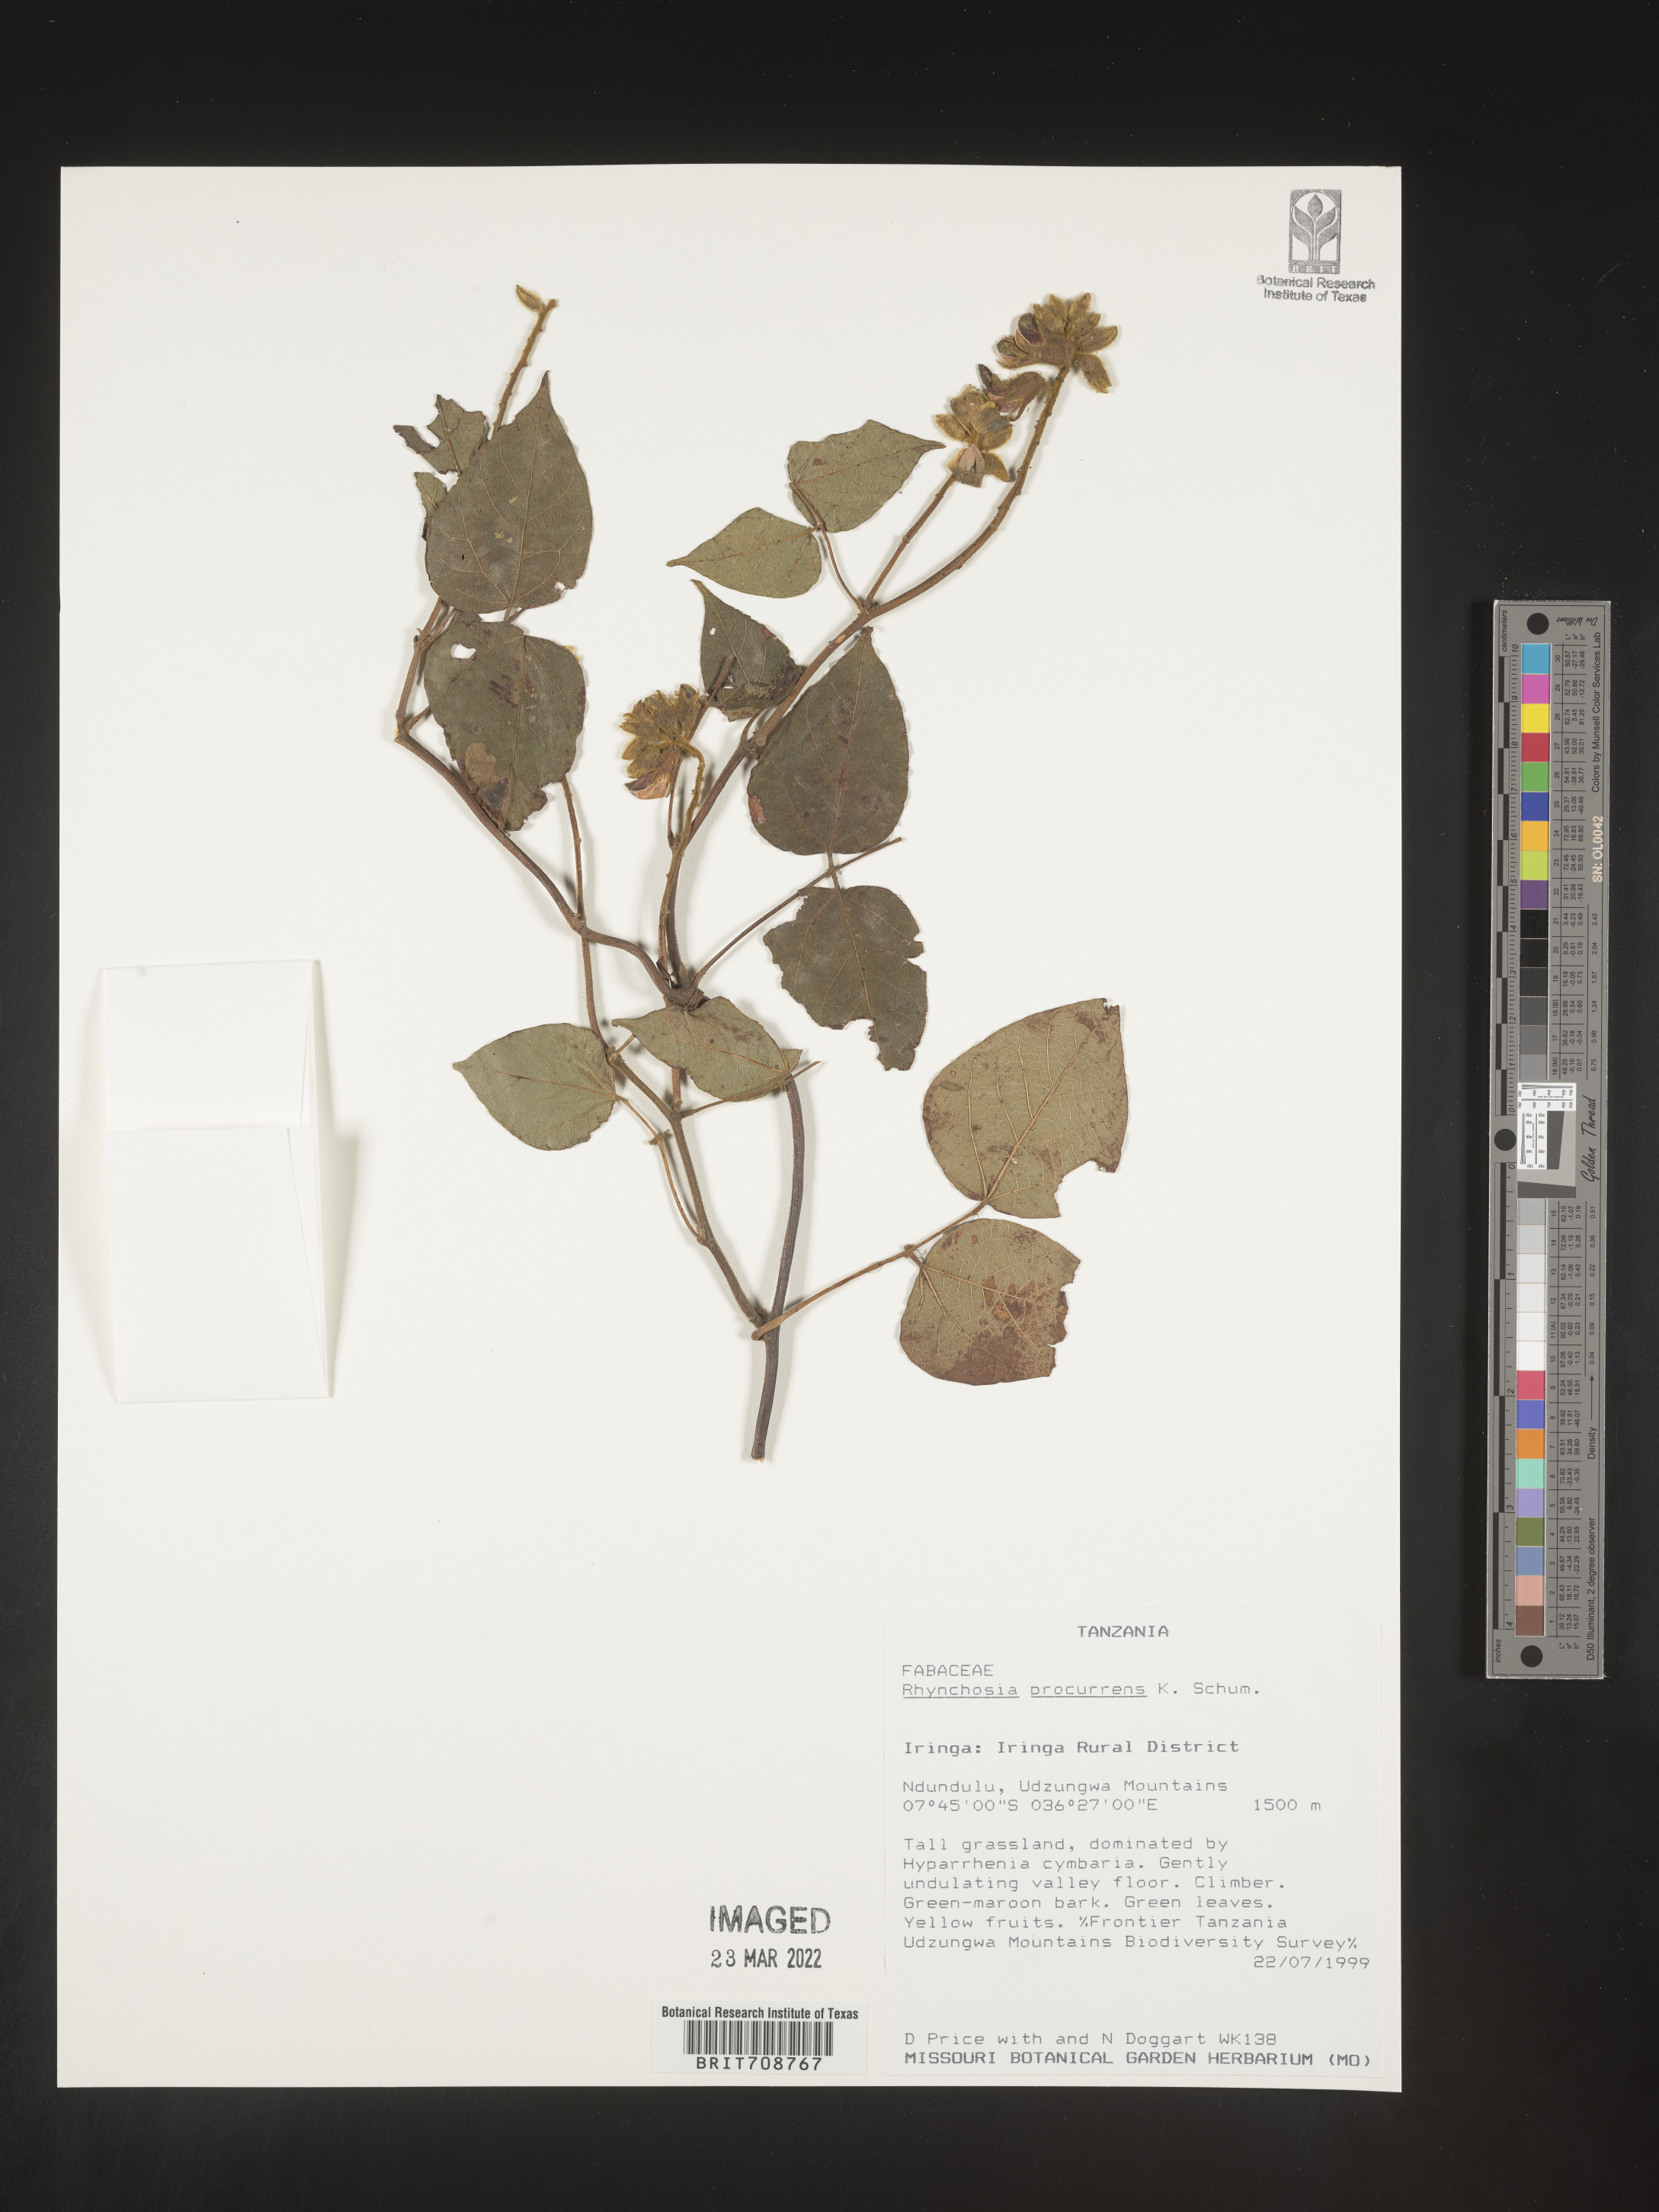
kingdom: Plantae
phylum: Tracheophyta
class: Magnoliopsida
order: Fabales
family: Fabaceae
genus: Rhynchosia
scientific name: Rhynchosia
